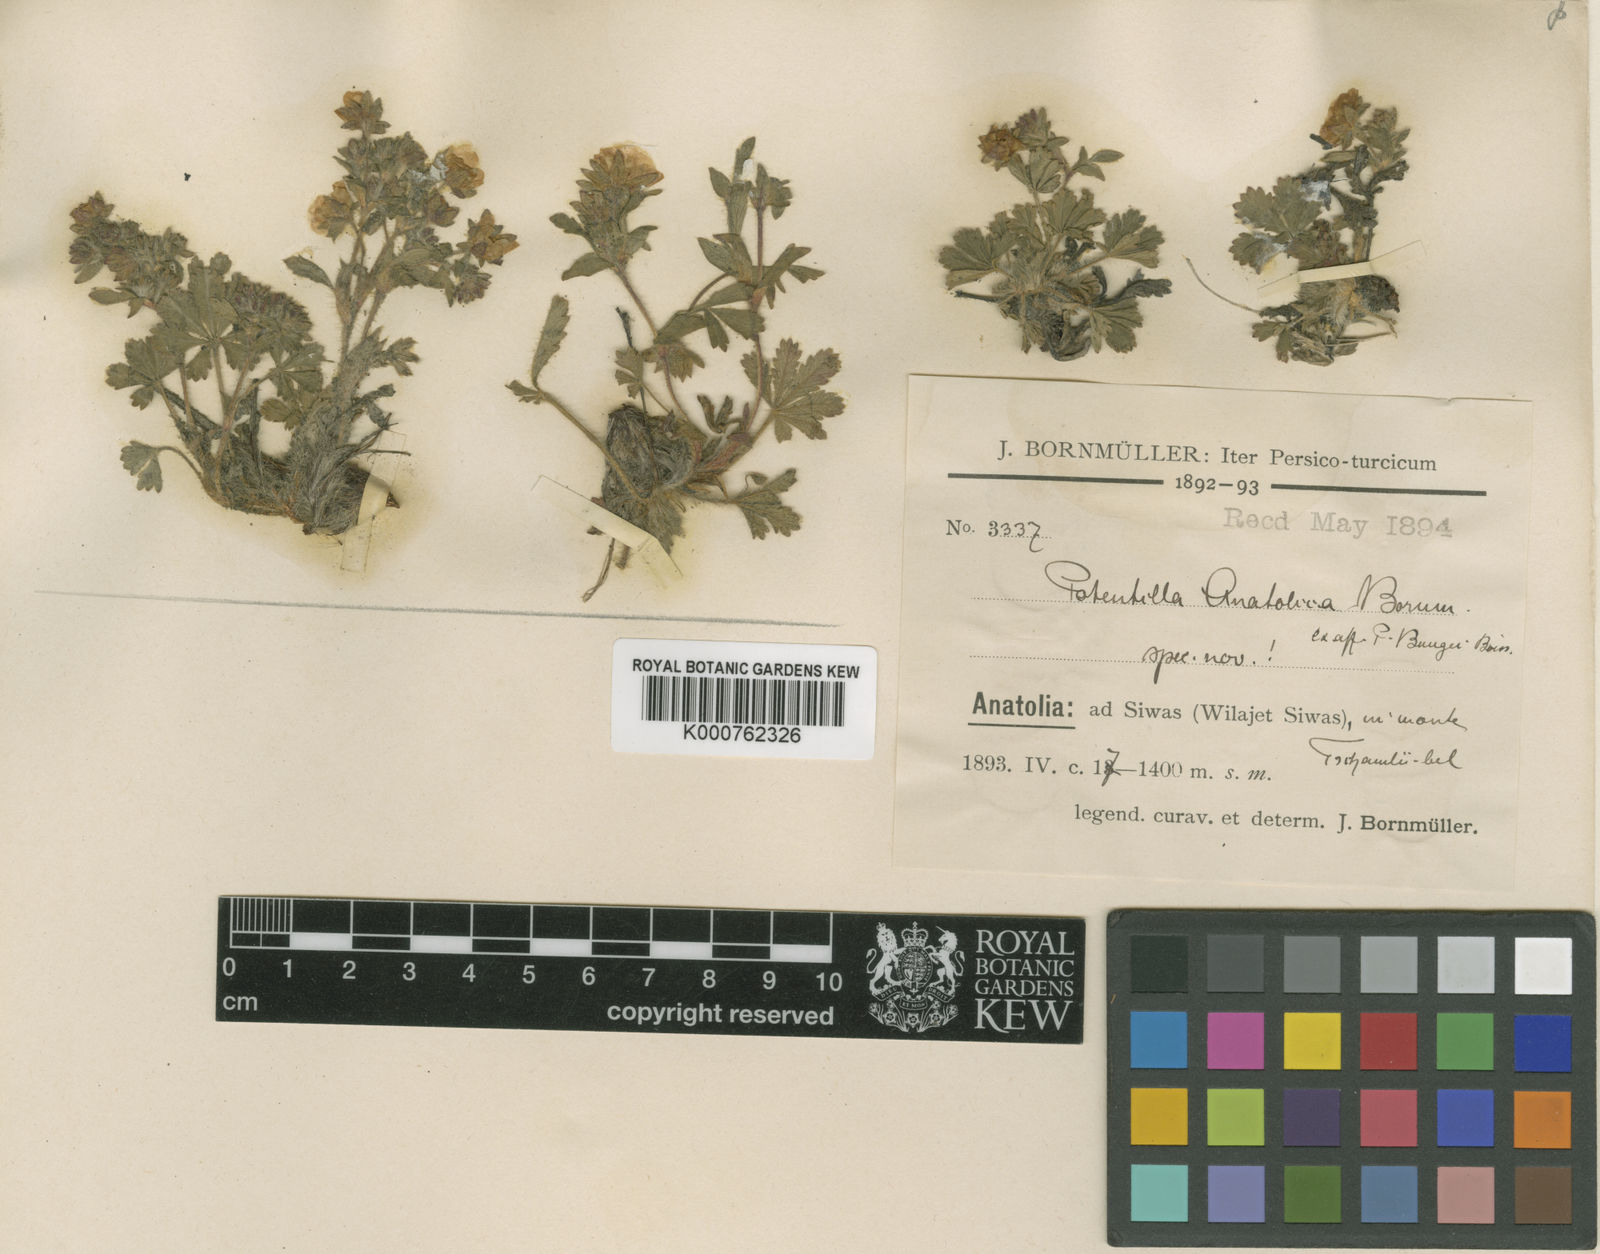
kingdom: Plantae
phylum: Tracheophyta
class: Magnoliopsida
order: Rosales
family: Rosaceae
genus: Potentilla
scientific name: Potentilla anatolica
